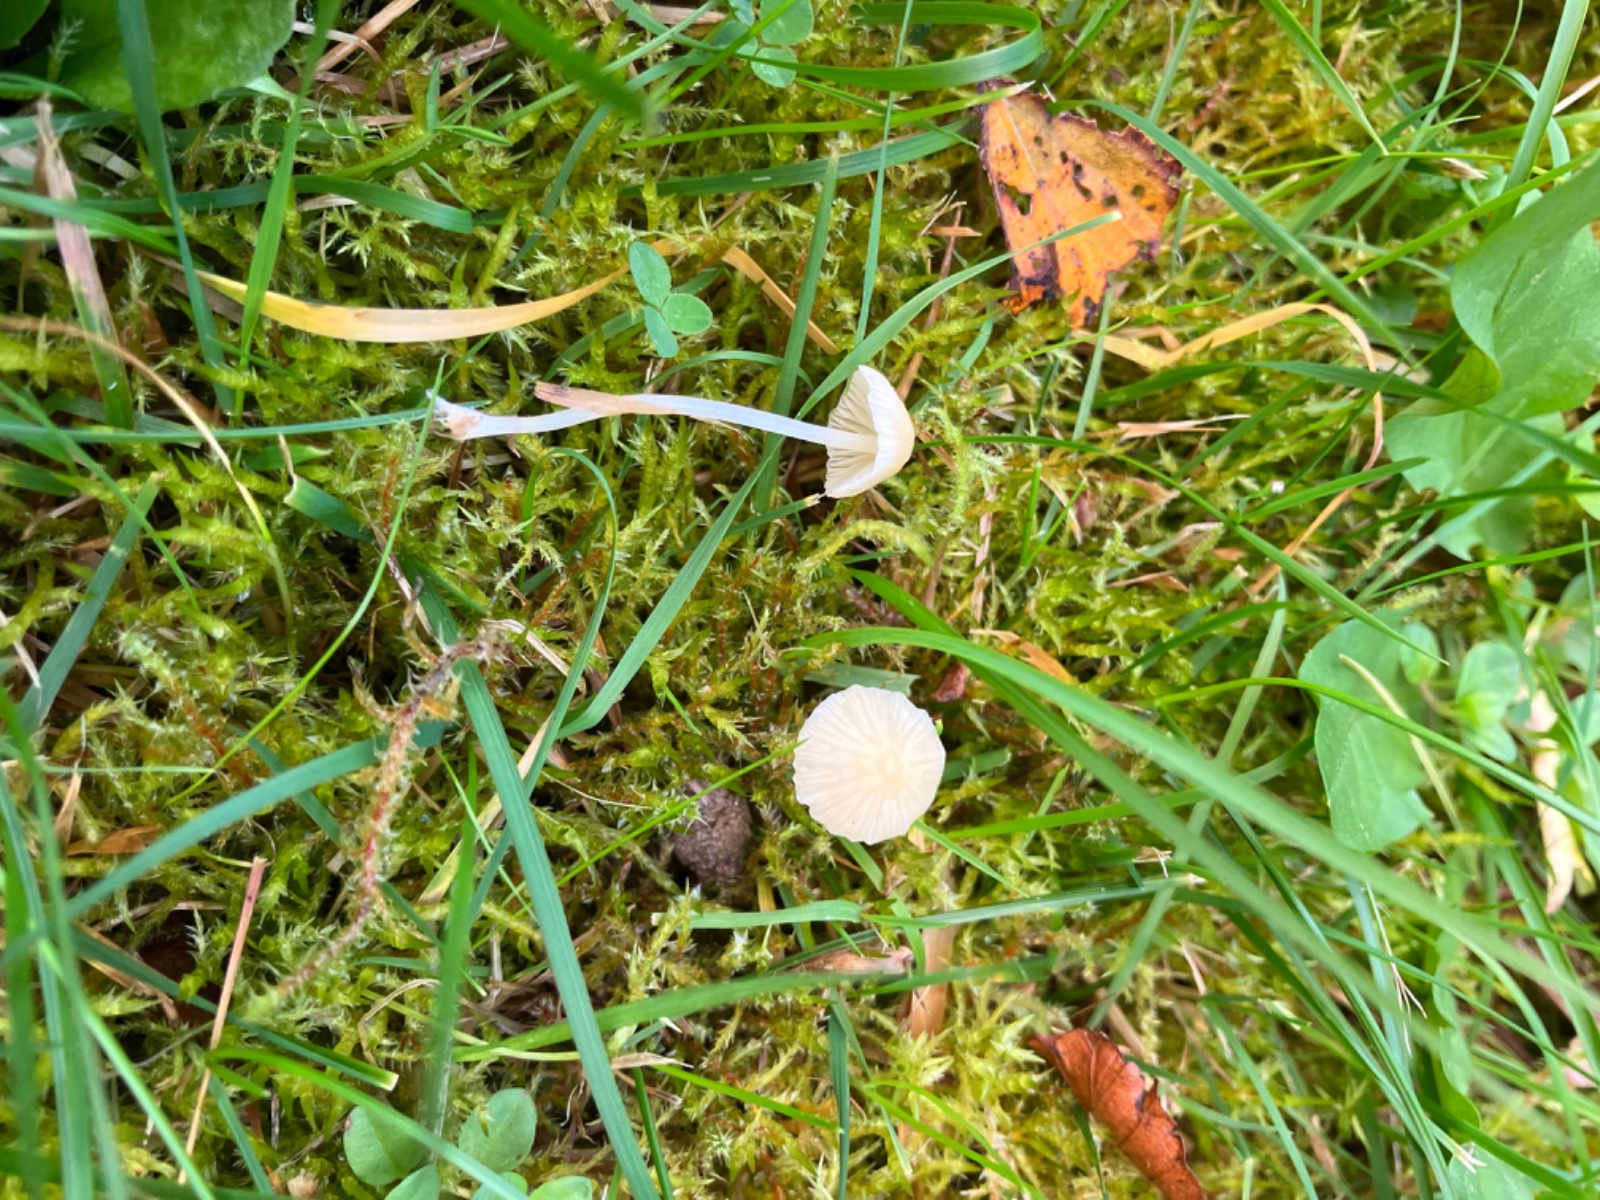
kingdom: Fungi
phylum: Basidiomycota
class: Agaricomycetes
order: Agaricales
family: Mycenaceae
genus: Atheniella
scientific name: Atheniella flavoalba
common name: gulhvid huesvamp
